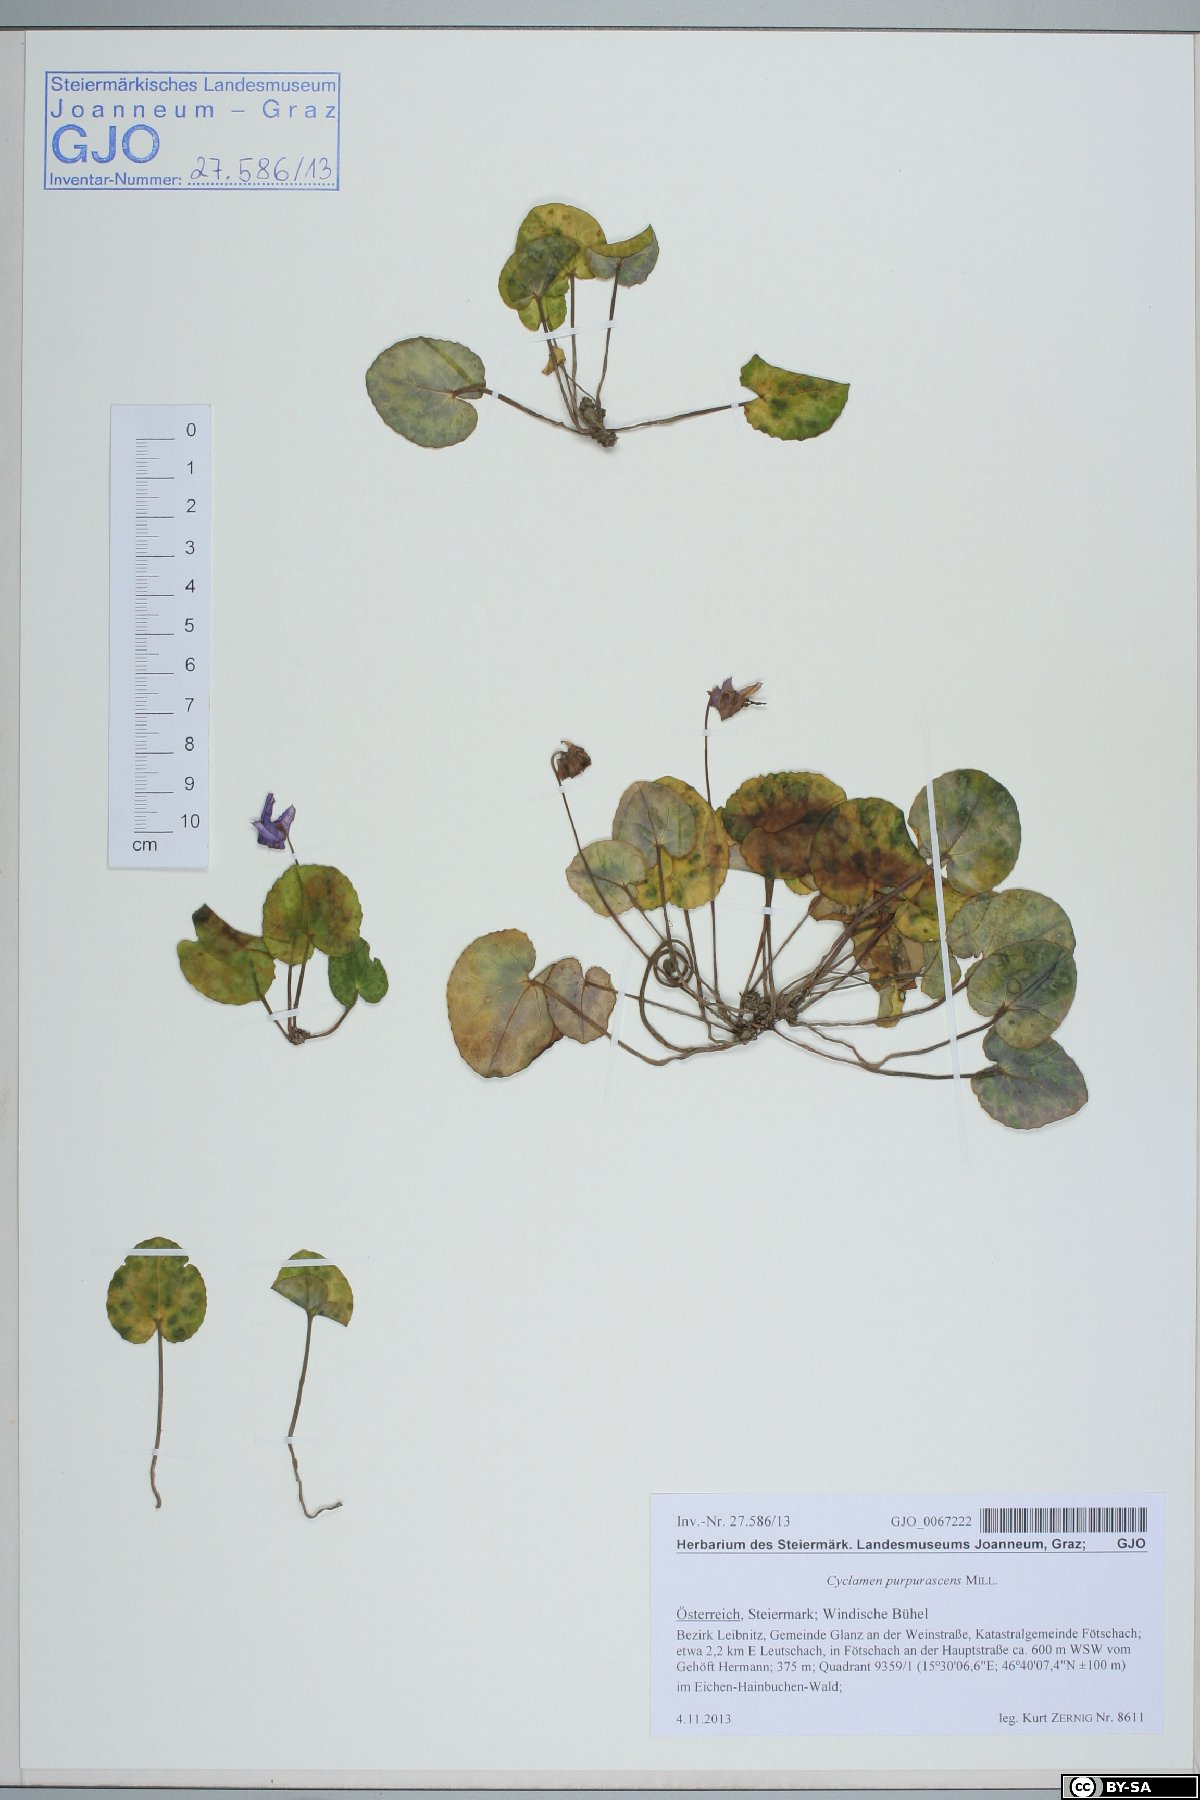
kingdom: Plantae
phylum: Tracheophyta
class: Magnoliopsida
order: Ericales
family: Primulaceae
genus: Cyclamen
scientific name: Cyclamen purpurascens
